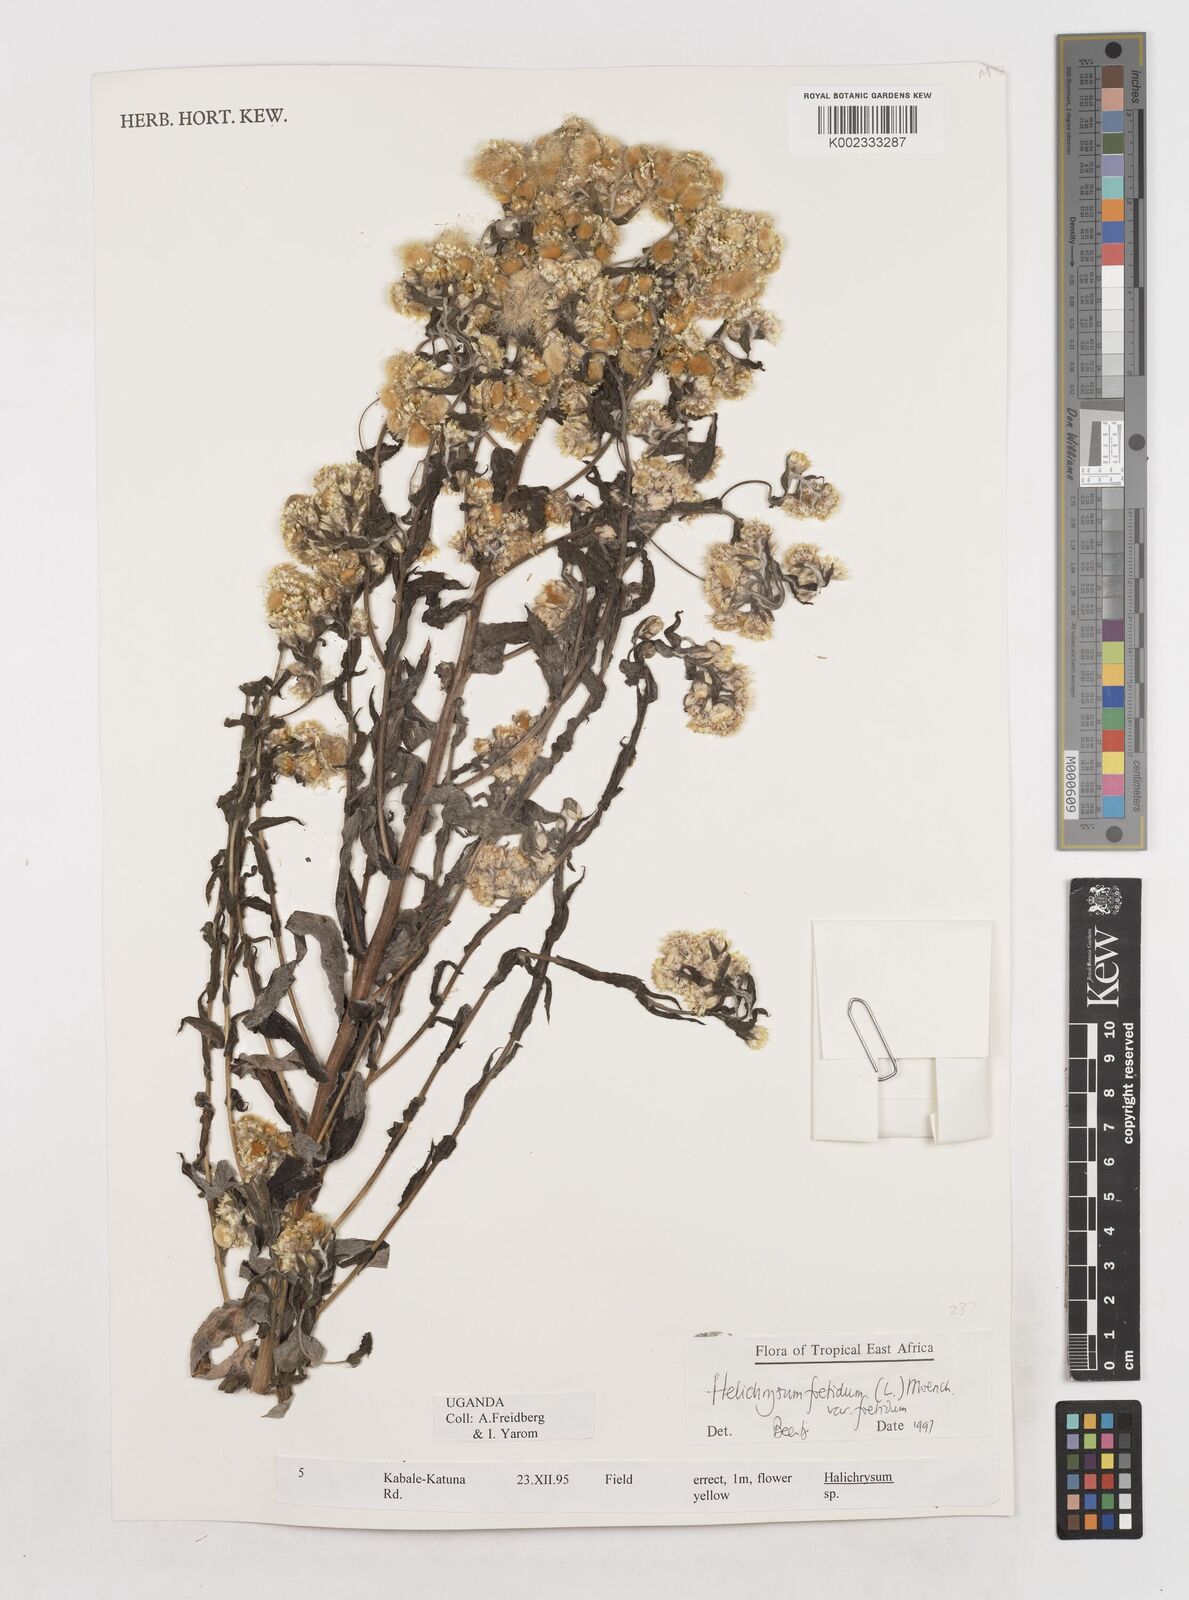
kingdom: Plantae
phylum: Tracheophyta
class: Magnoliopsida
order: Asterales
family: Asteraceae
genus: Helichrysum
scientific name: Helichrysum foetidum
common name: Stinking everlasting
